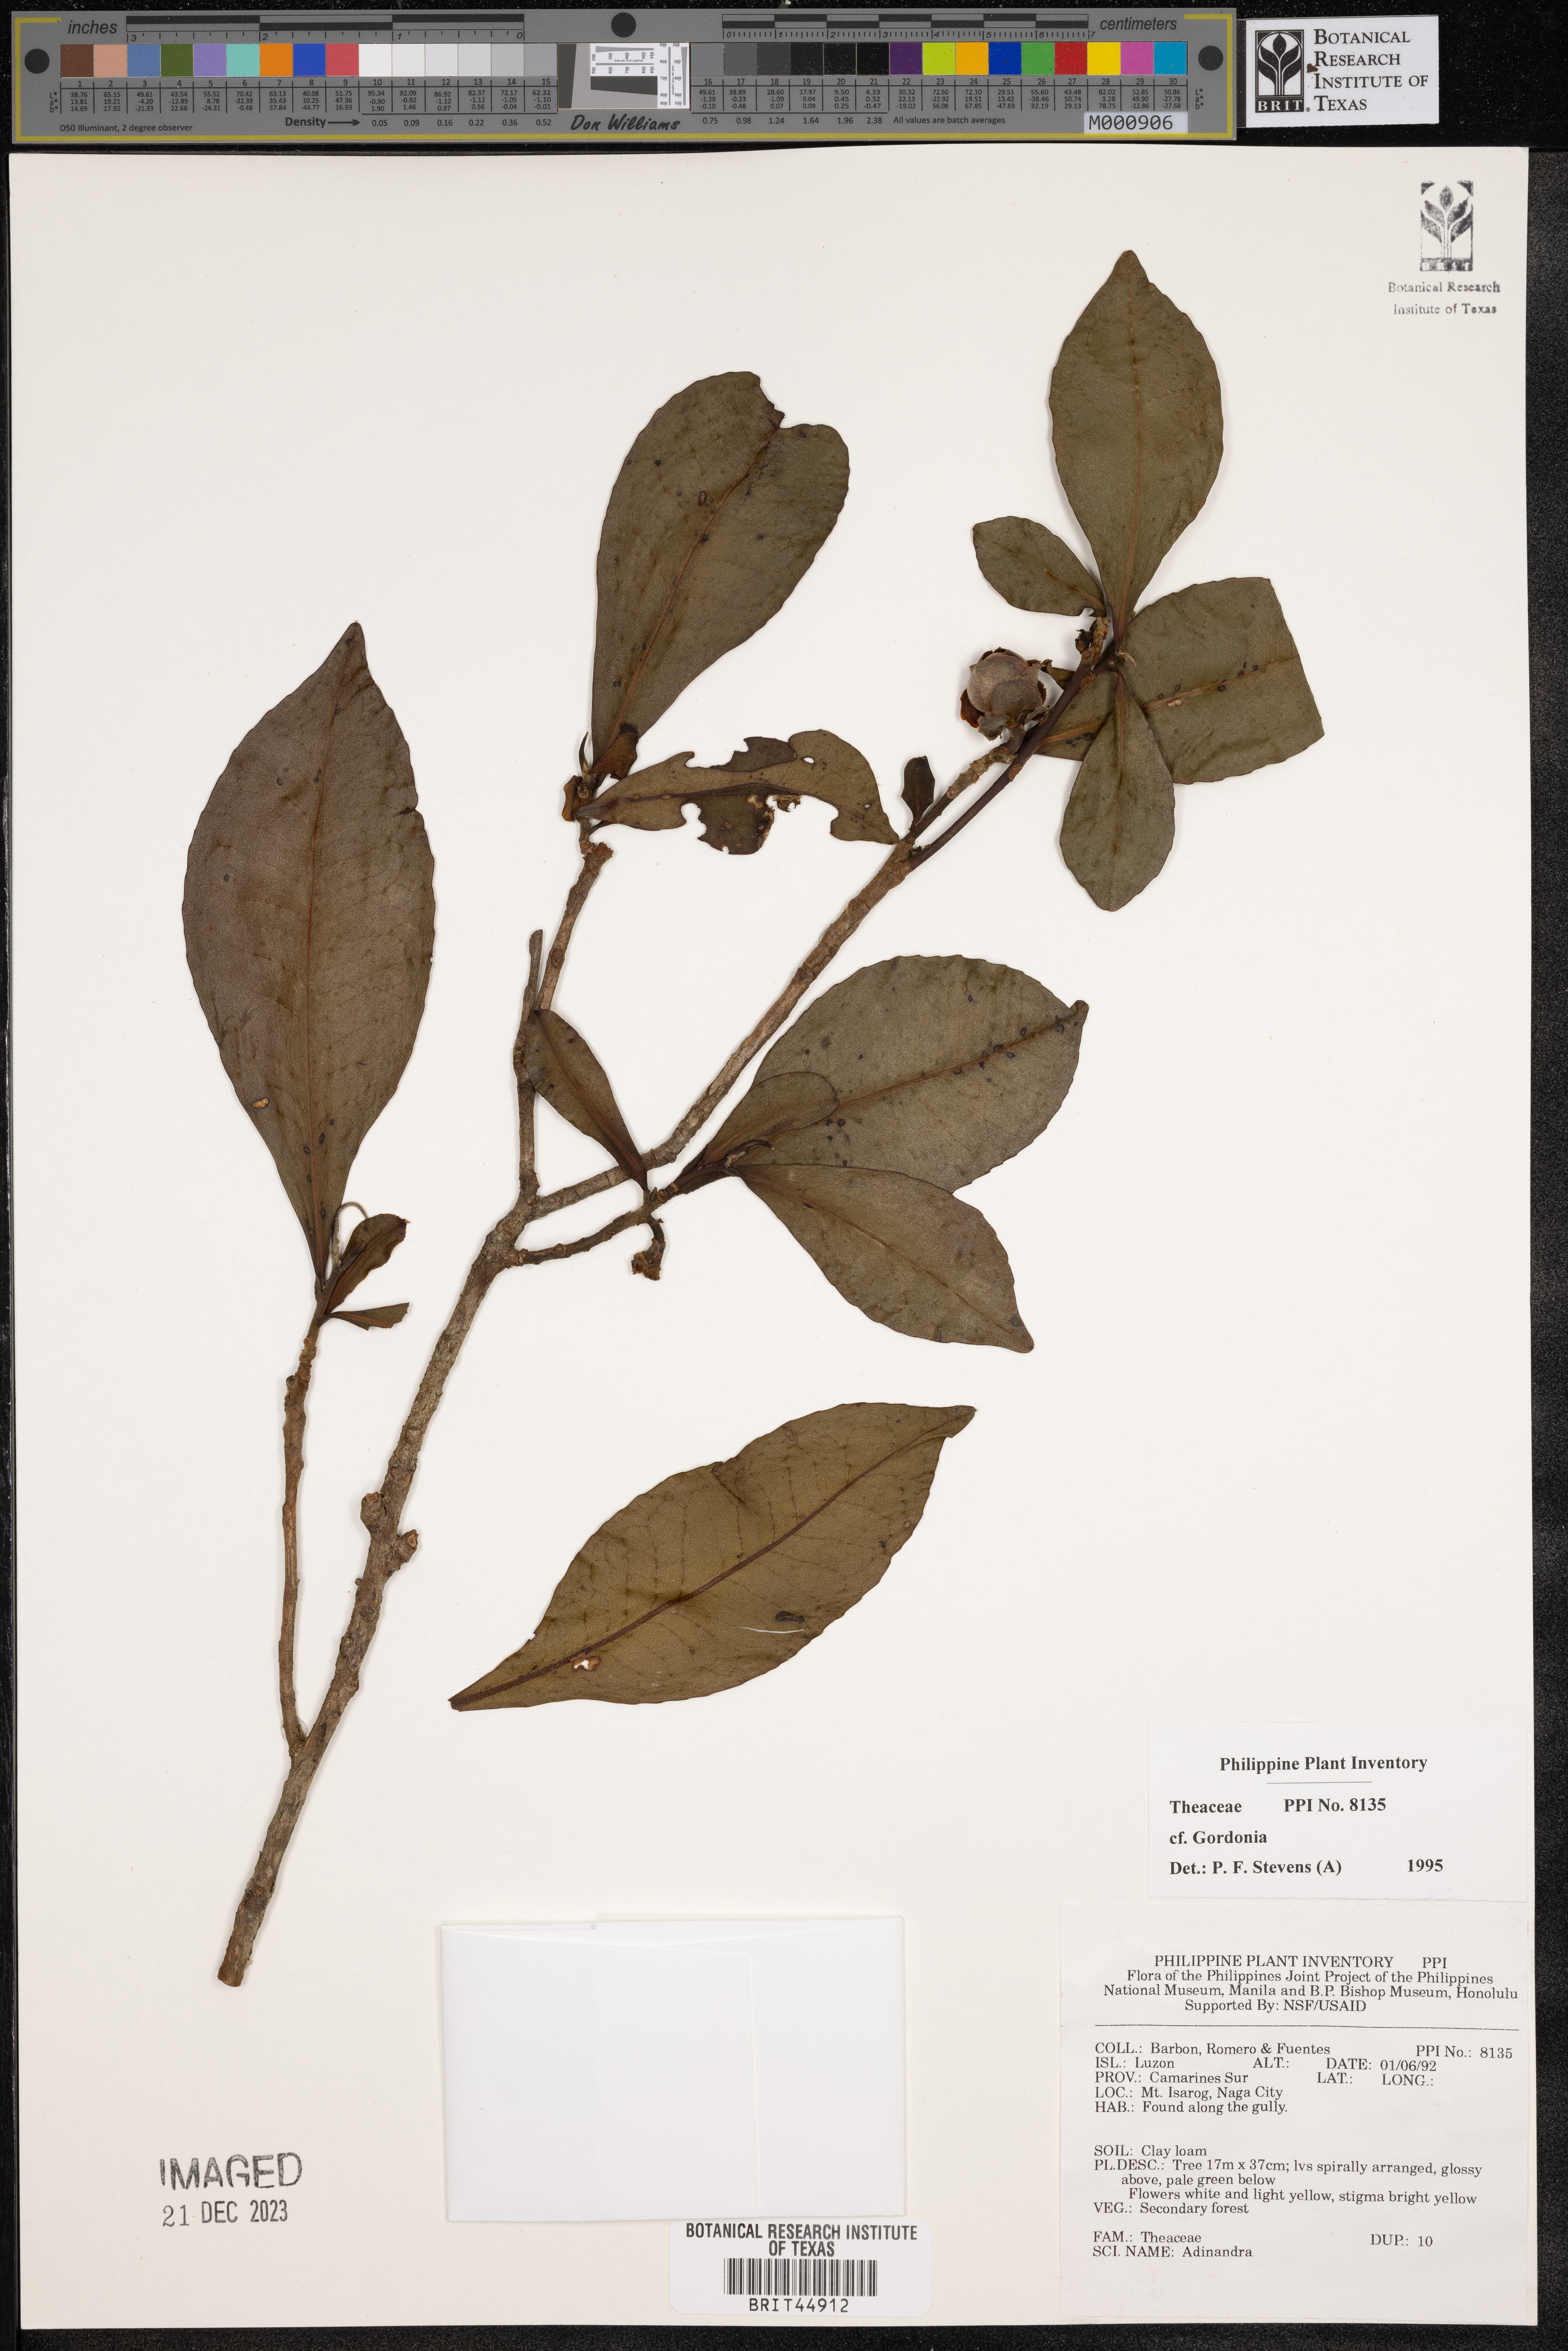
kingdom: Plantae
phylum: Tracheophyta
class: Magnoliopsida
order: Ericales
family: Theaceae
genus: Gordonia
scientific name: Gordonia
